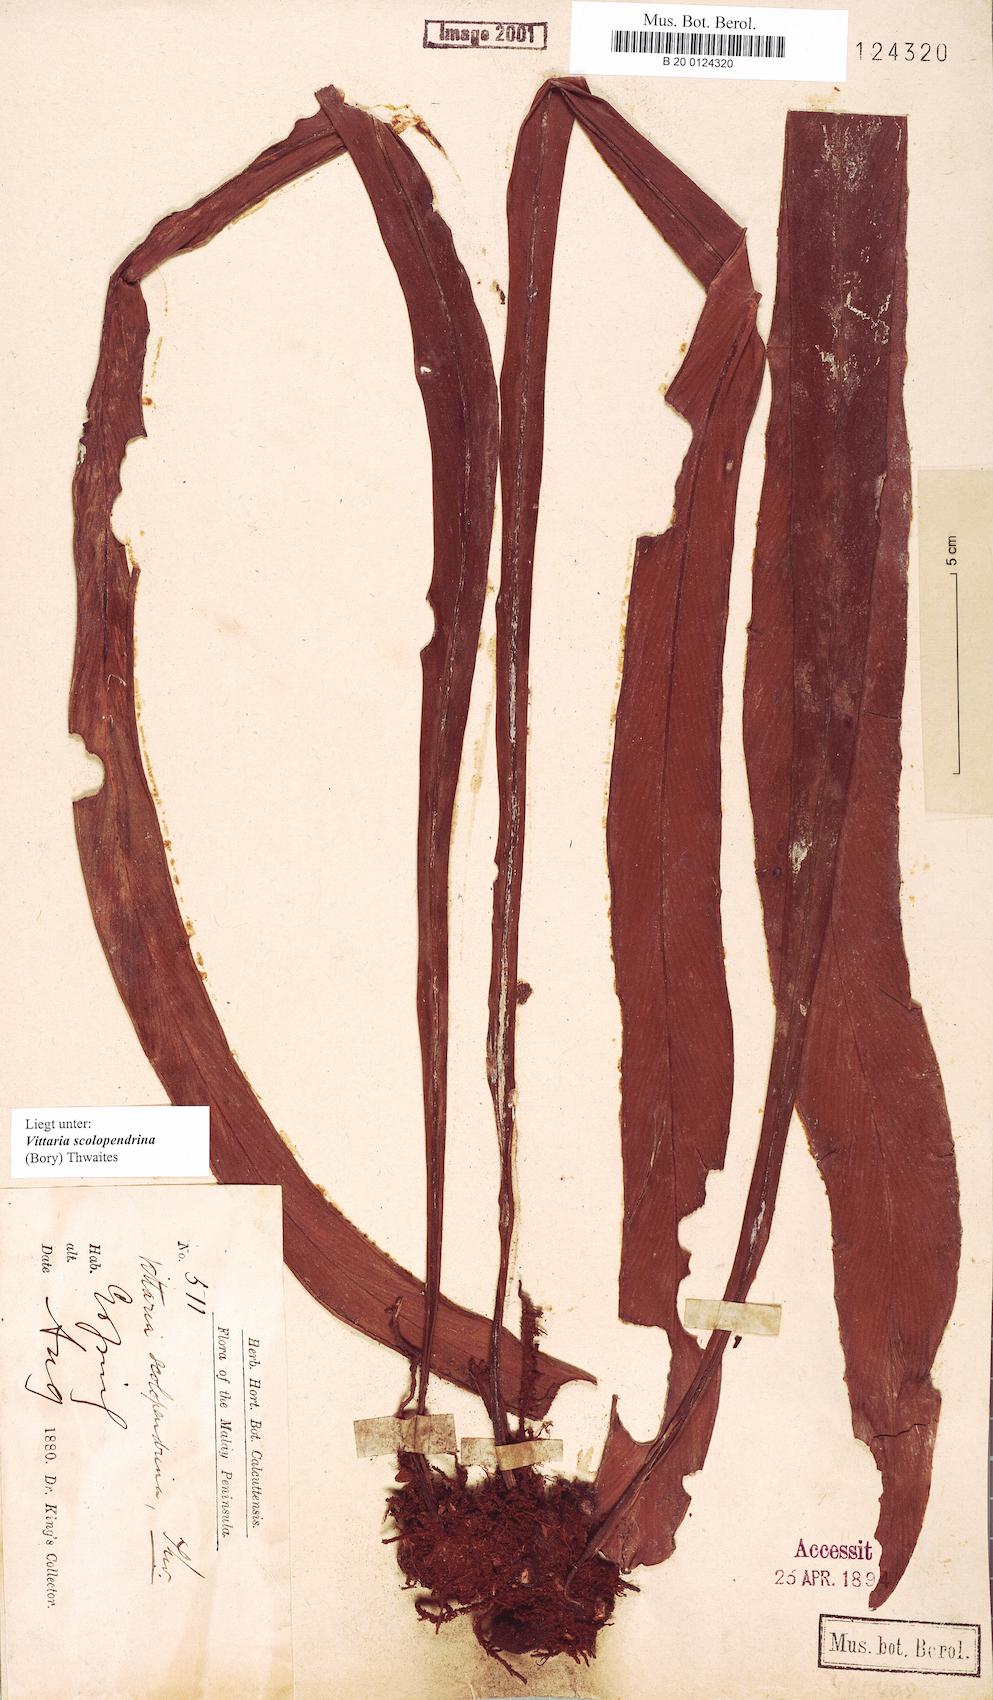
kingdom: Plantae
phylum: Tracheophyta
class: Polypodiopsida
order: Polypodiales
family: Pteridaceae
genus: Haplopteris
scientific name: Haplopteris scolopendrina
